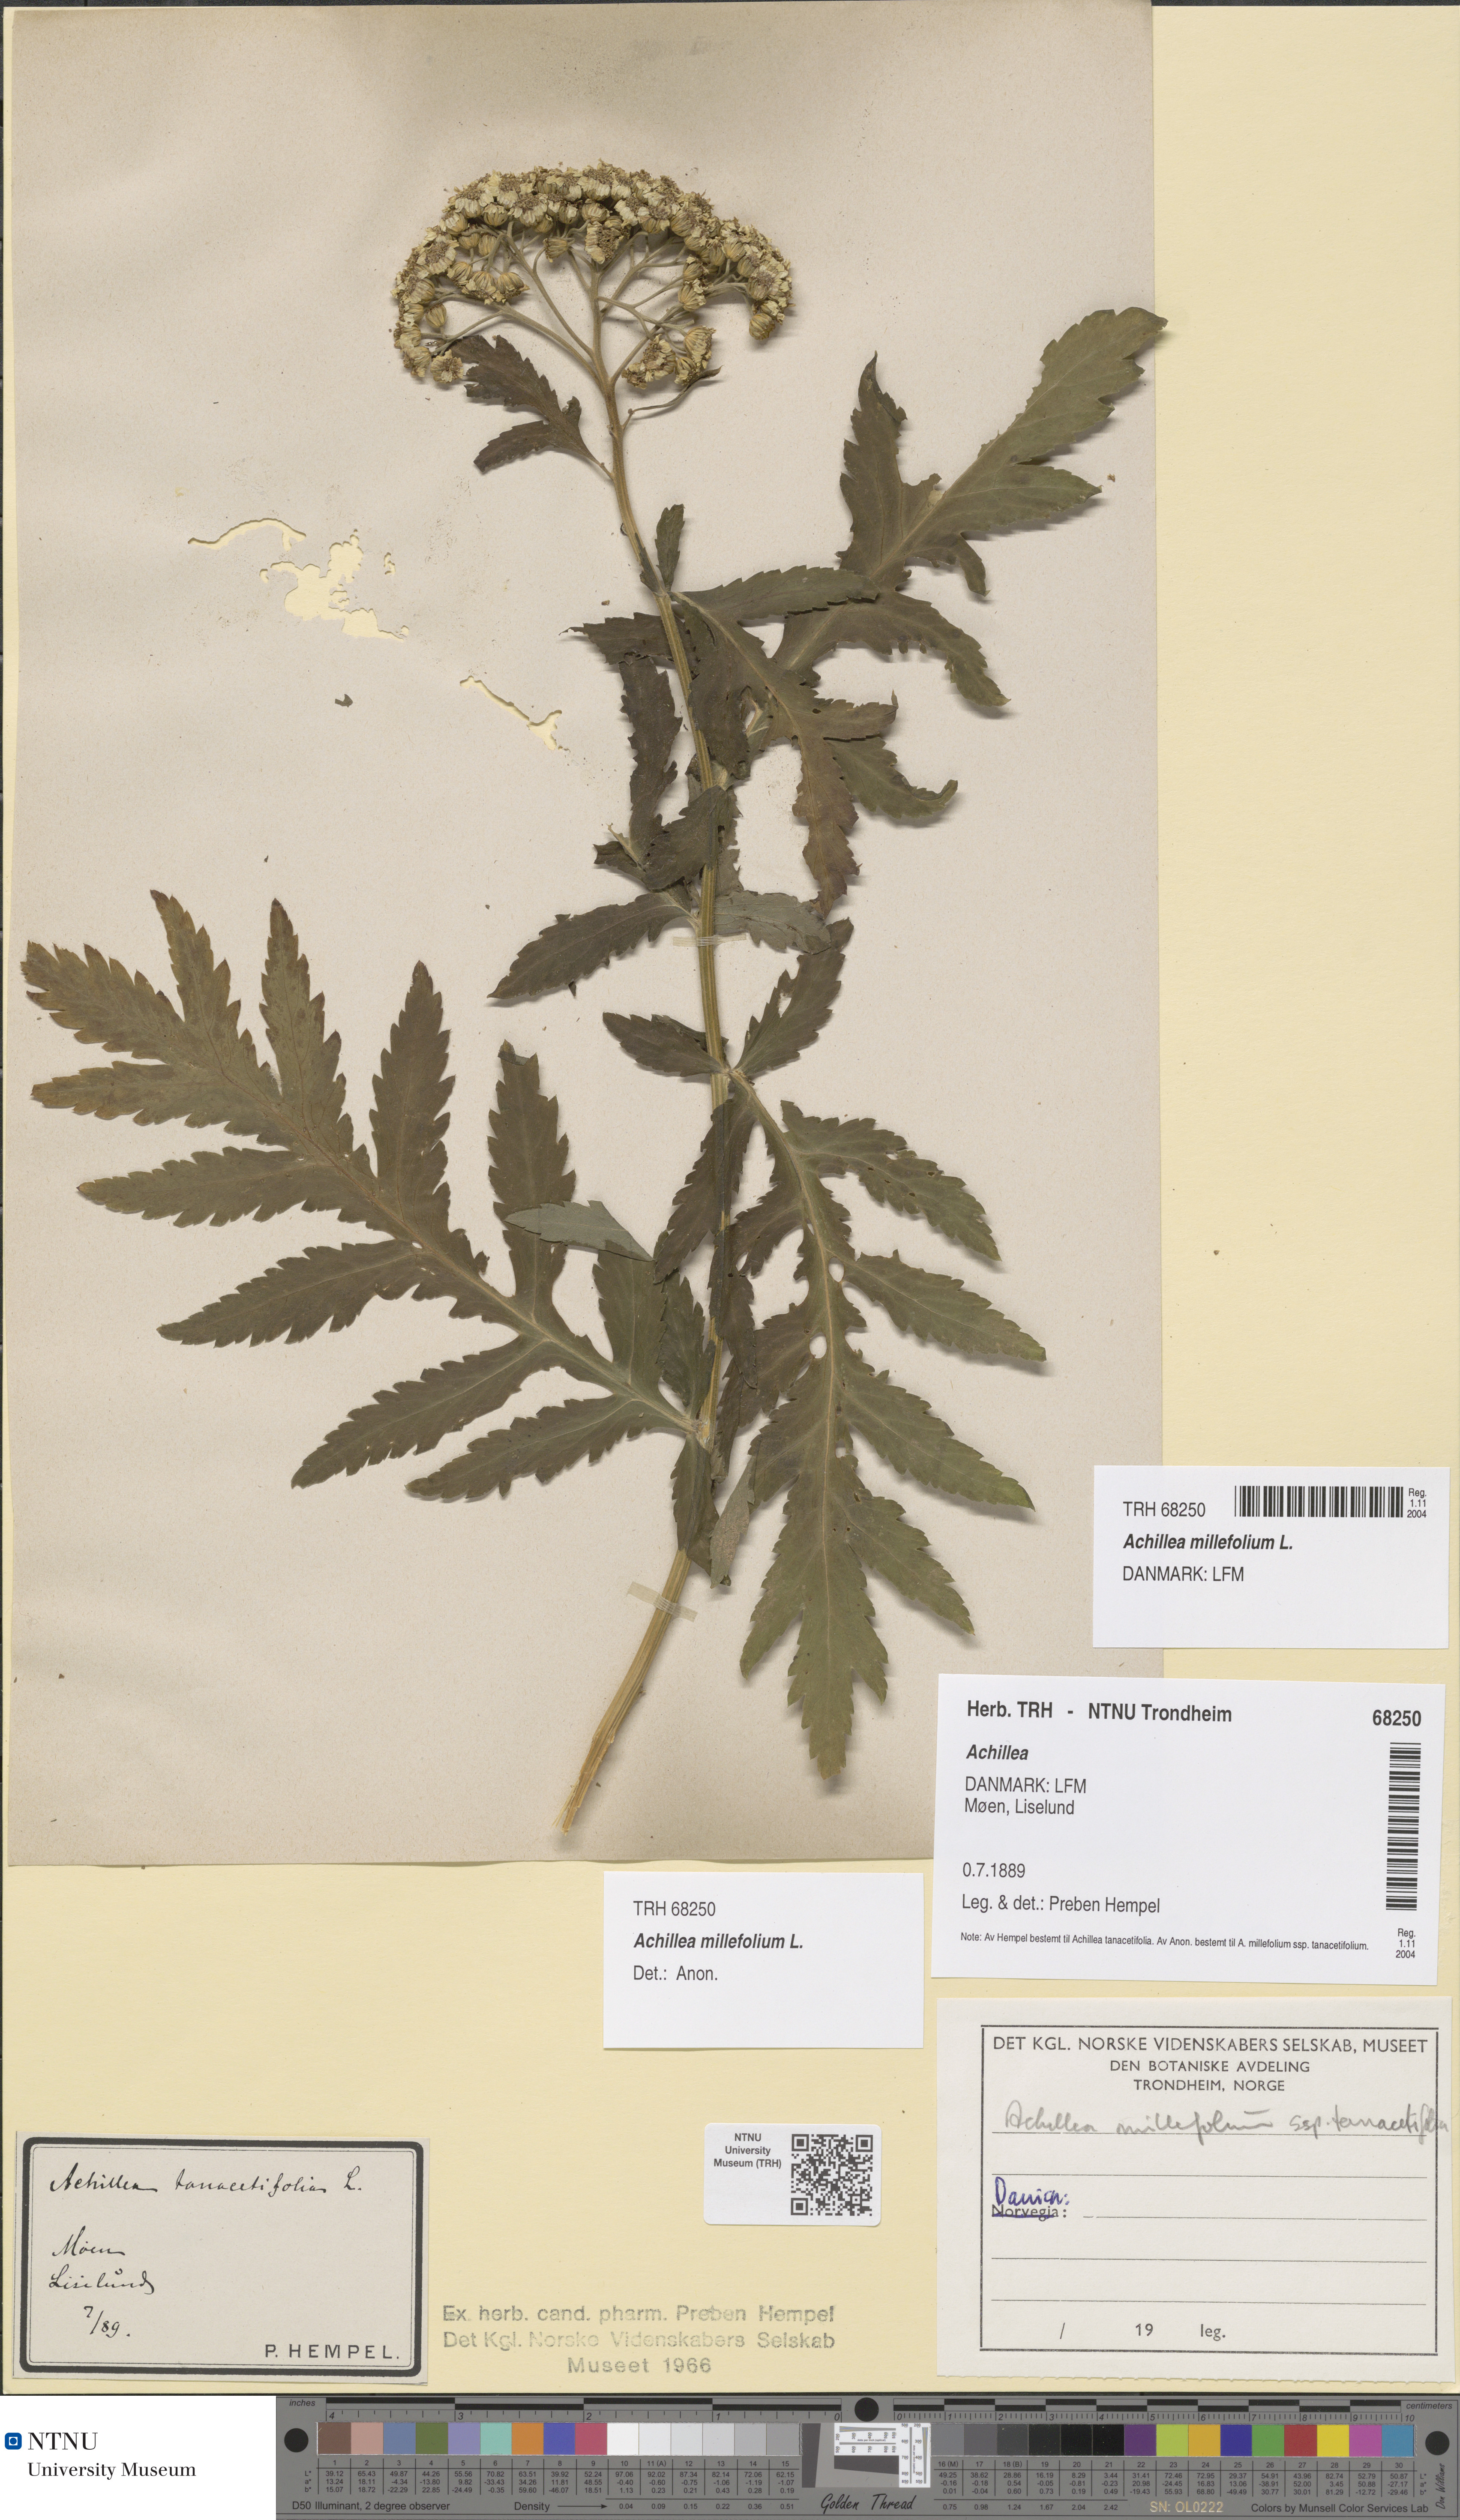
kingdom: Plantae
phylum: Tracheophyta
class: Magnoliopsida
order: Asterales
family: Asteraceae
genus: Achillea
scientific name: Achillea millefolium
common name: Yarrow
